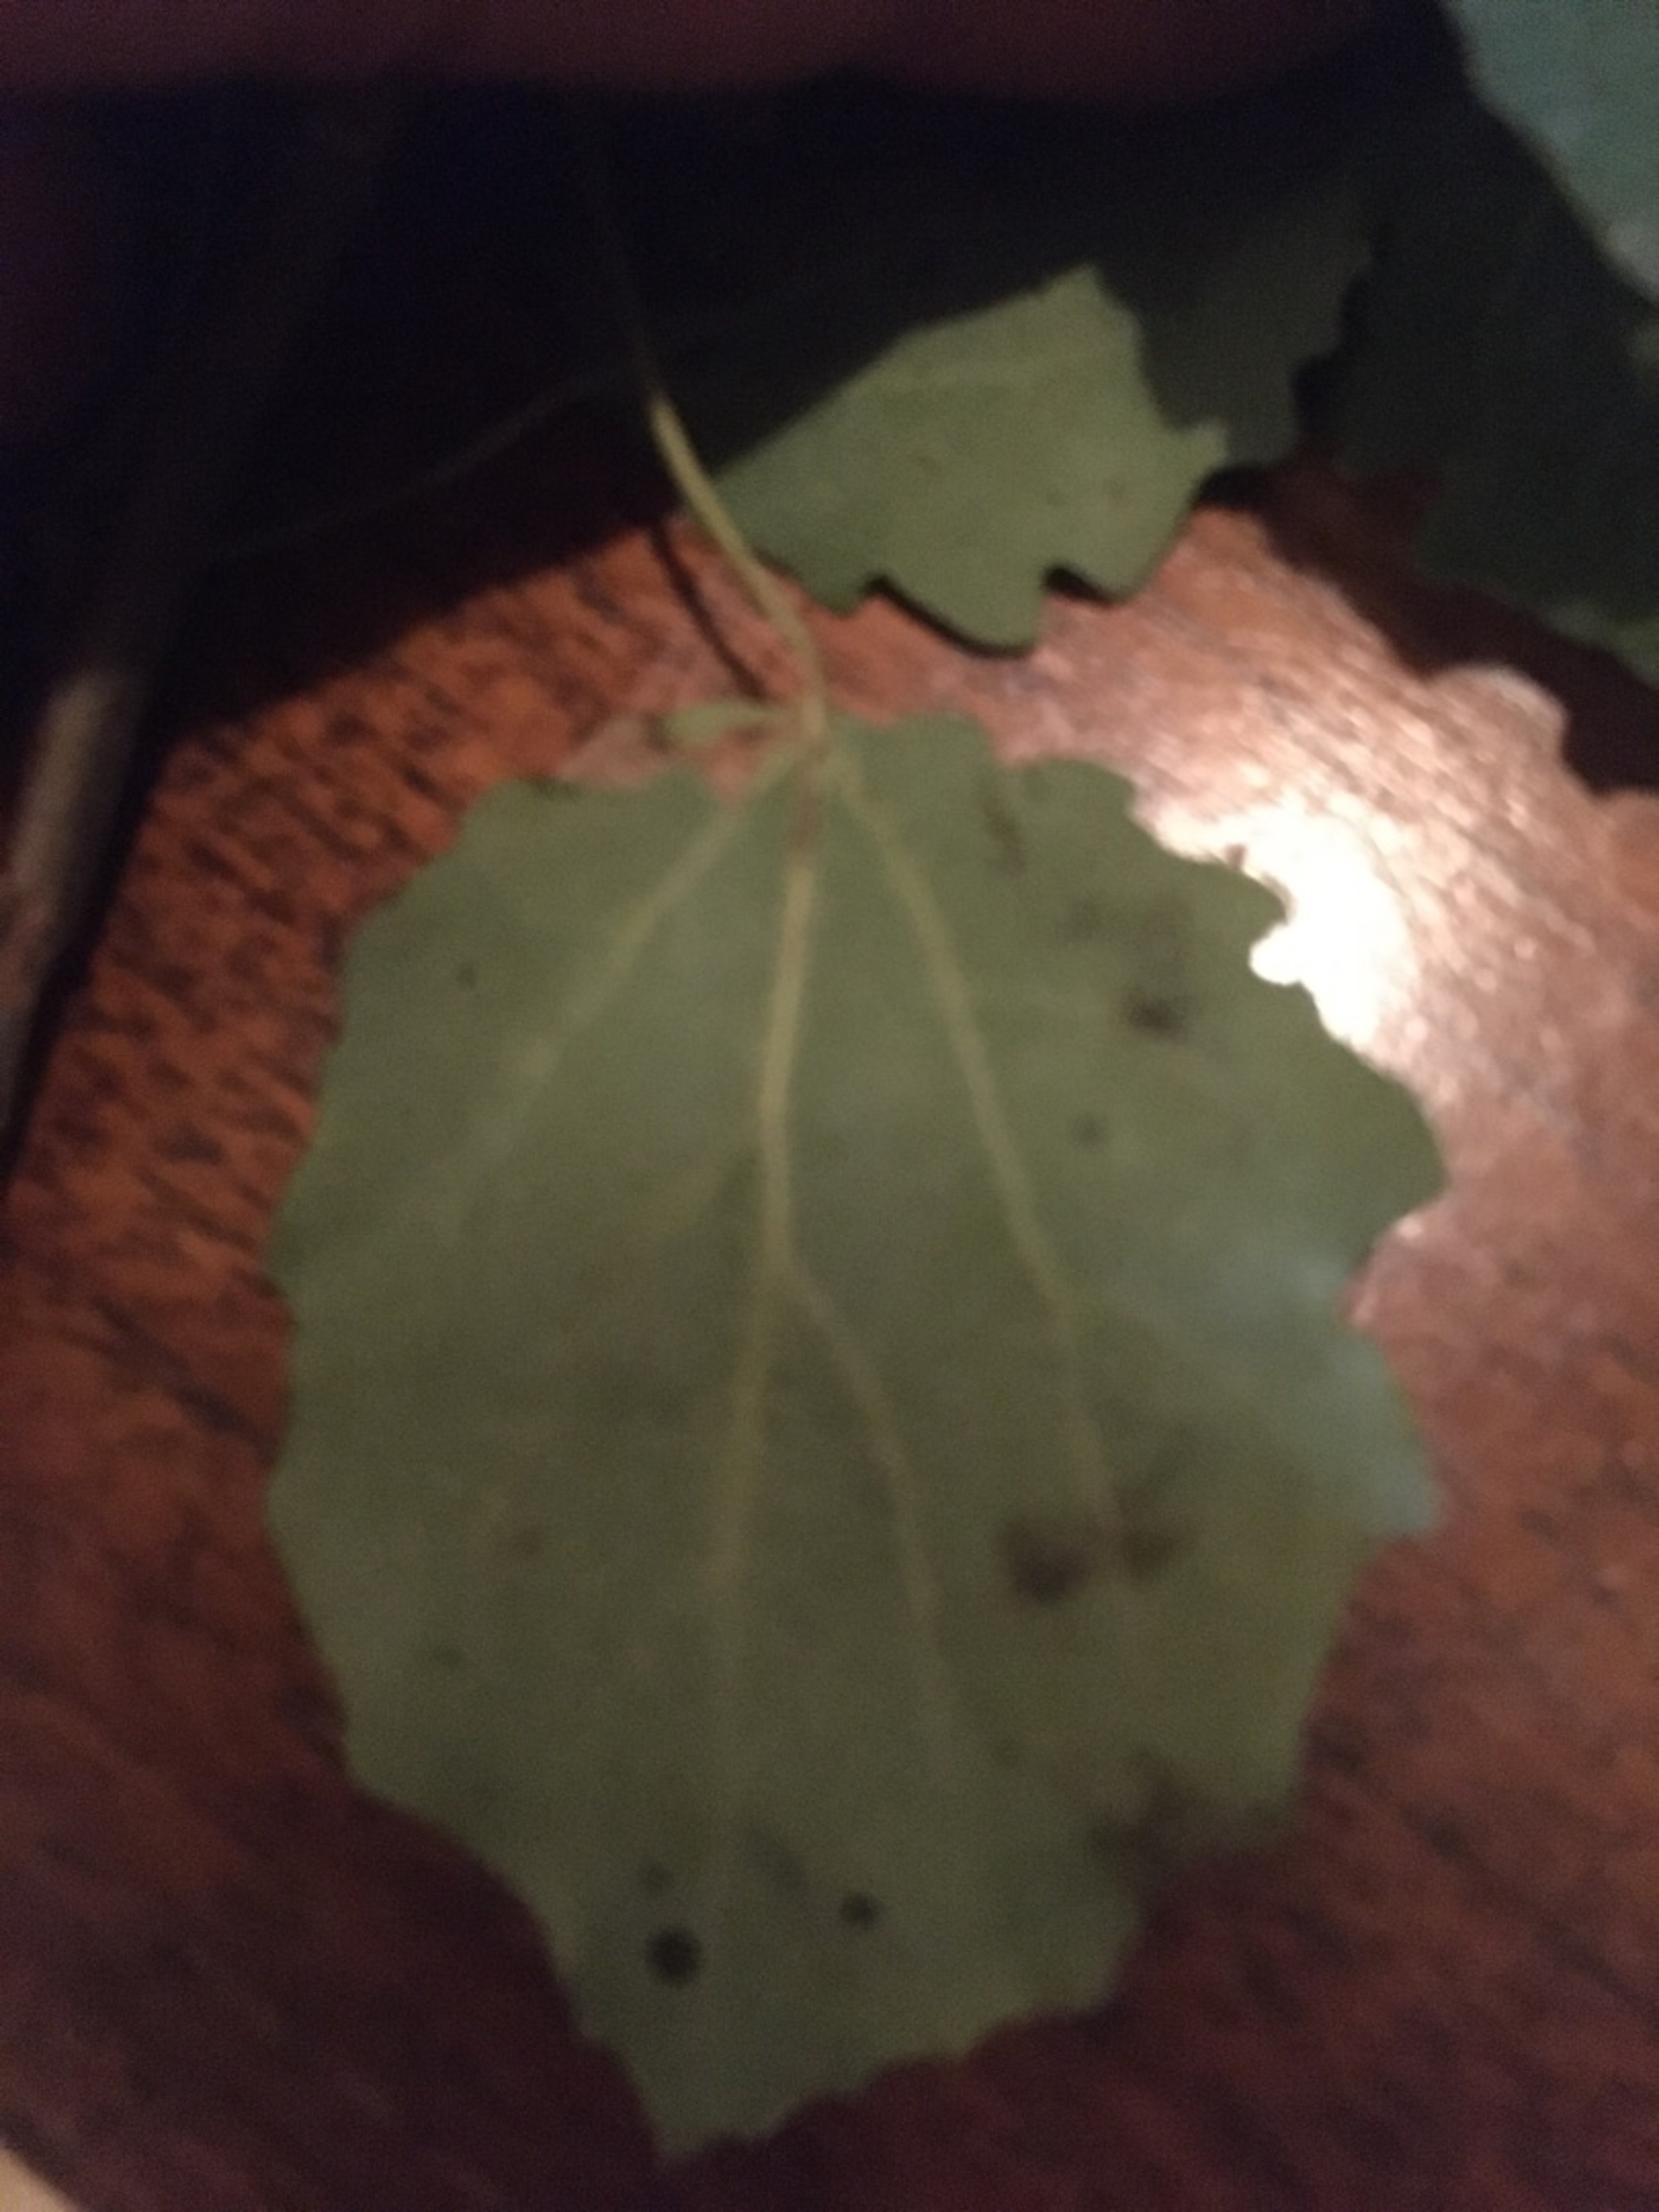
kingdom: Plantae
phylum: Tracheophyta
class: Magnoliopsida
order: Malpighiales
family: Salicaceae
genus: Populus
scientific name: Populus tremula
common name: Bævreasp
